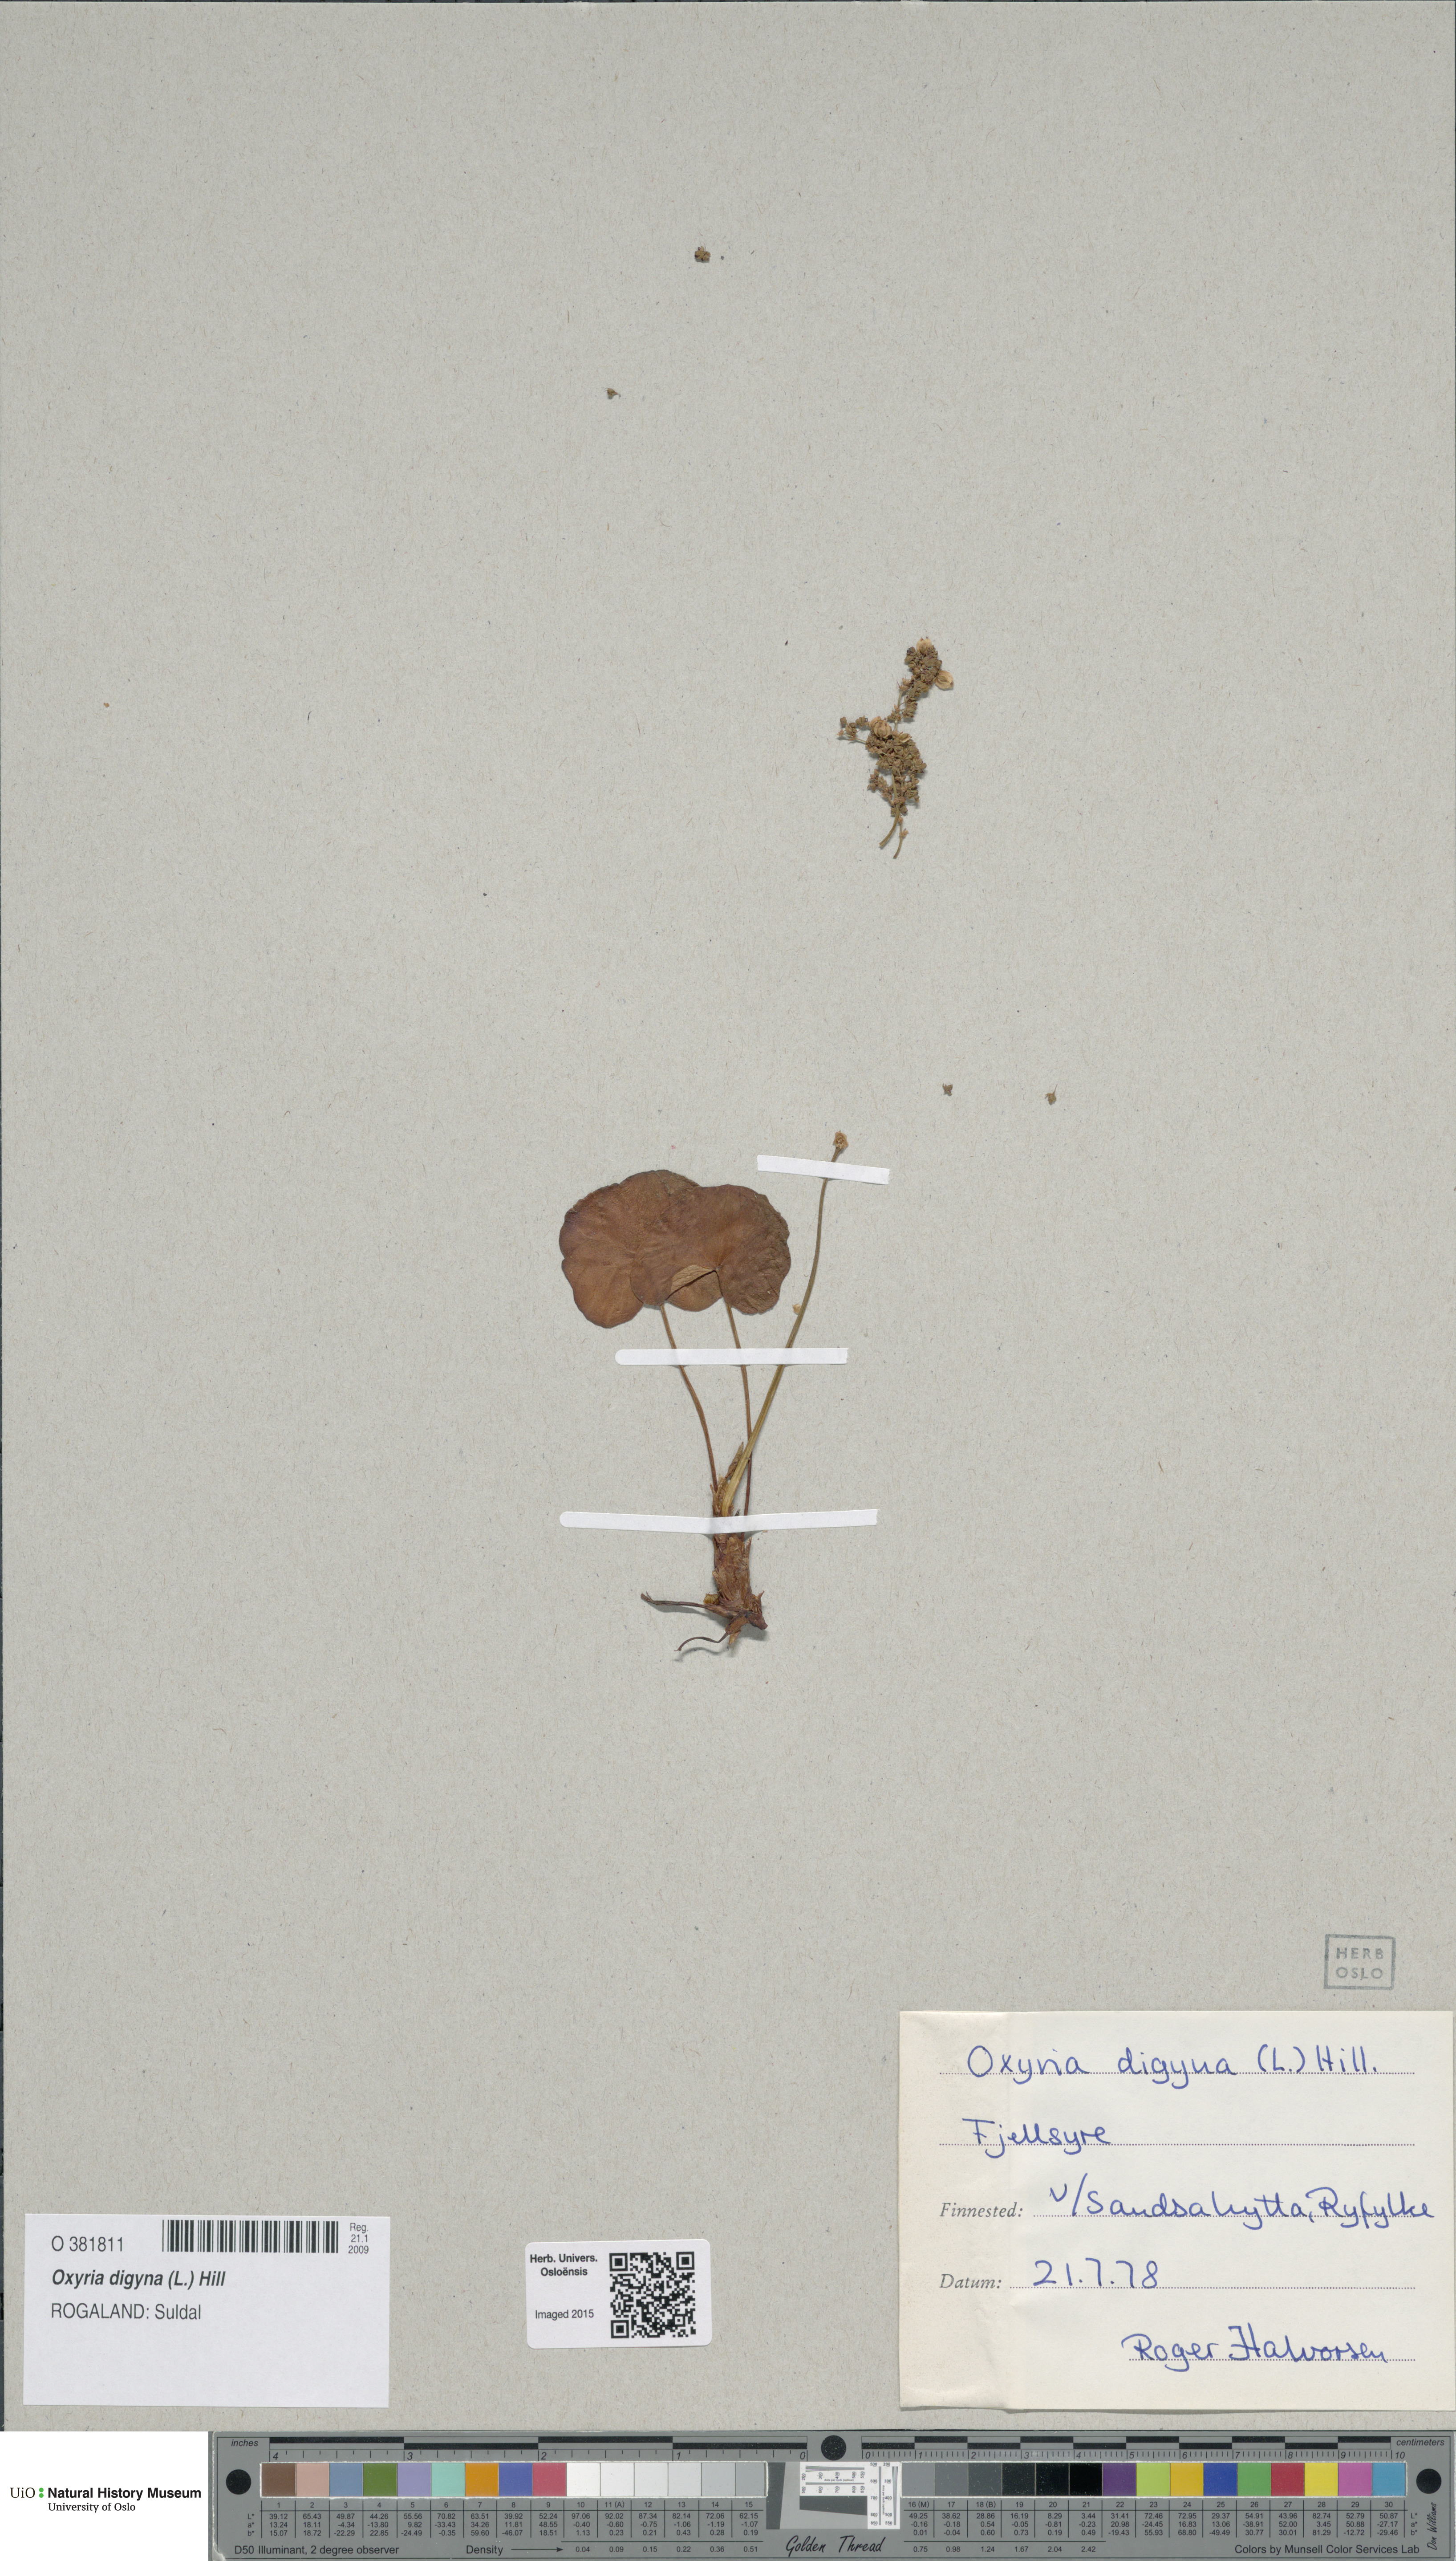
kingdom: Plantae
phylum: Tracheophyta
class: Magnoliopsida
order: Caryophyllales
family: Polygonaceae
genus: Oxyria
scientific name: Oxyria digyna
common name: Alpine mountain-sorrel
